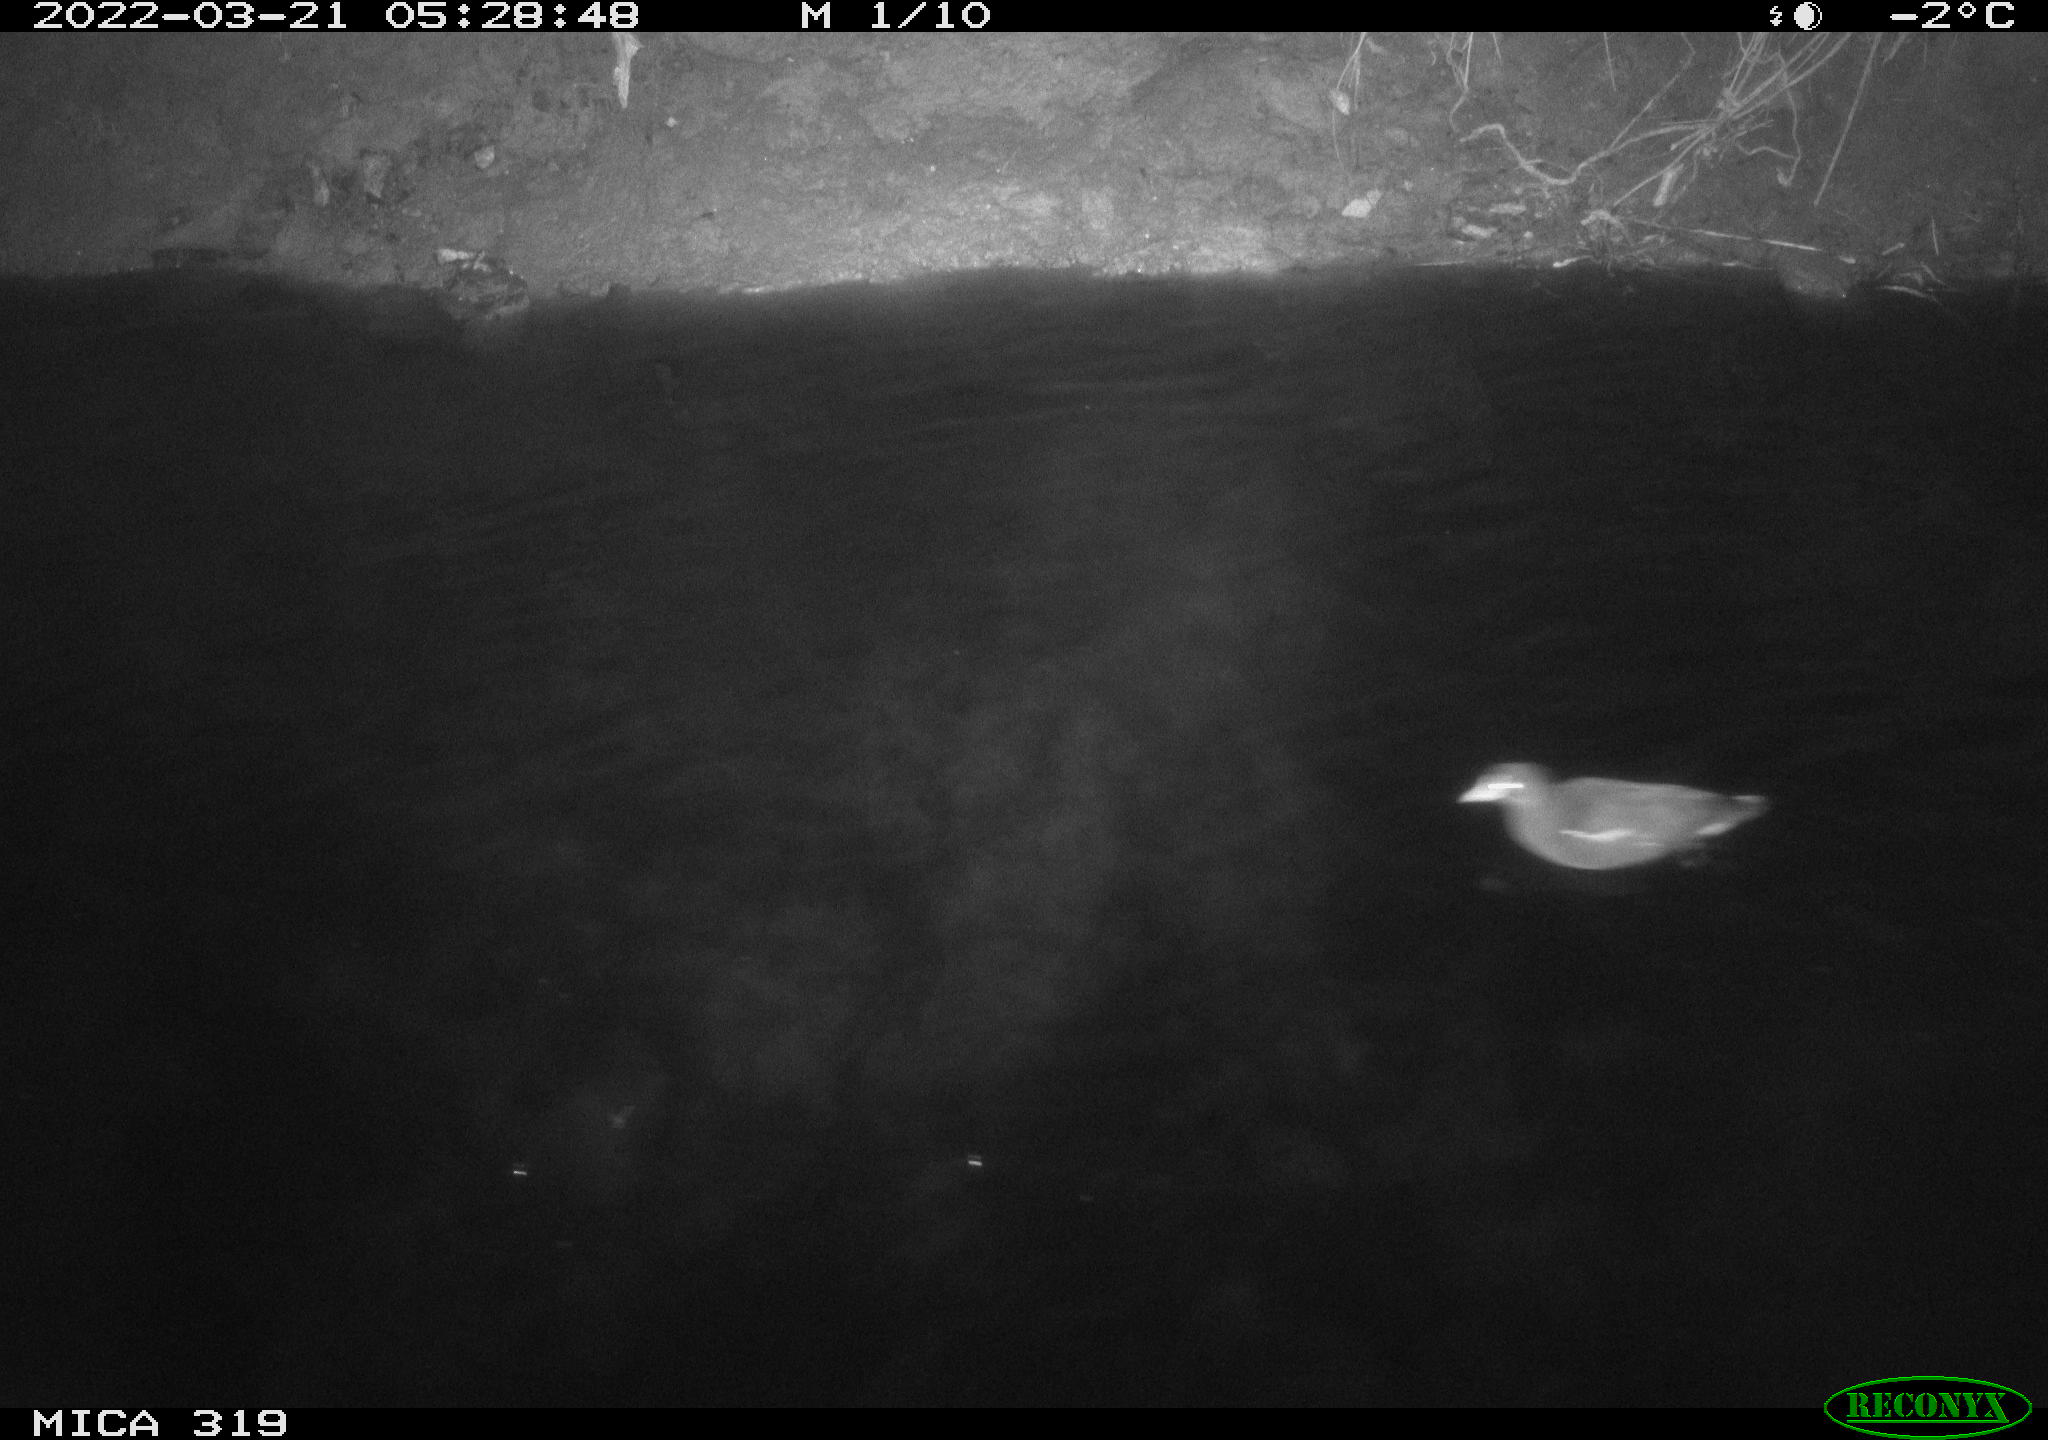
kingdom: Animalia
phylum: Chordata
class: Aves
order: Gruiformes
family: Rallidae
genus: Gallinula
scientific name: Gallinula chloropus
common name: Common moorhen
